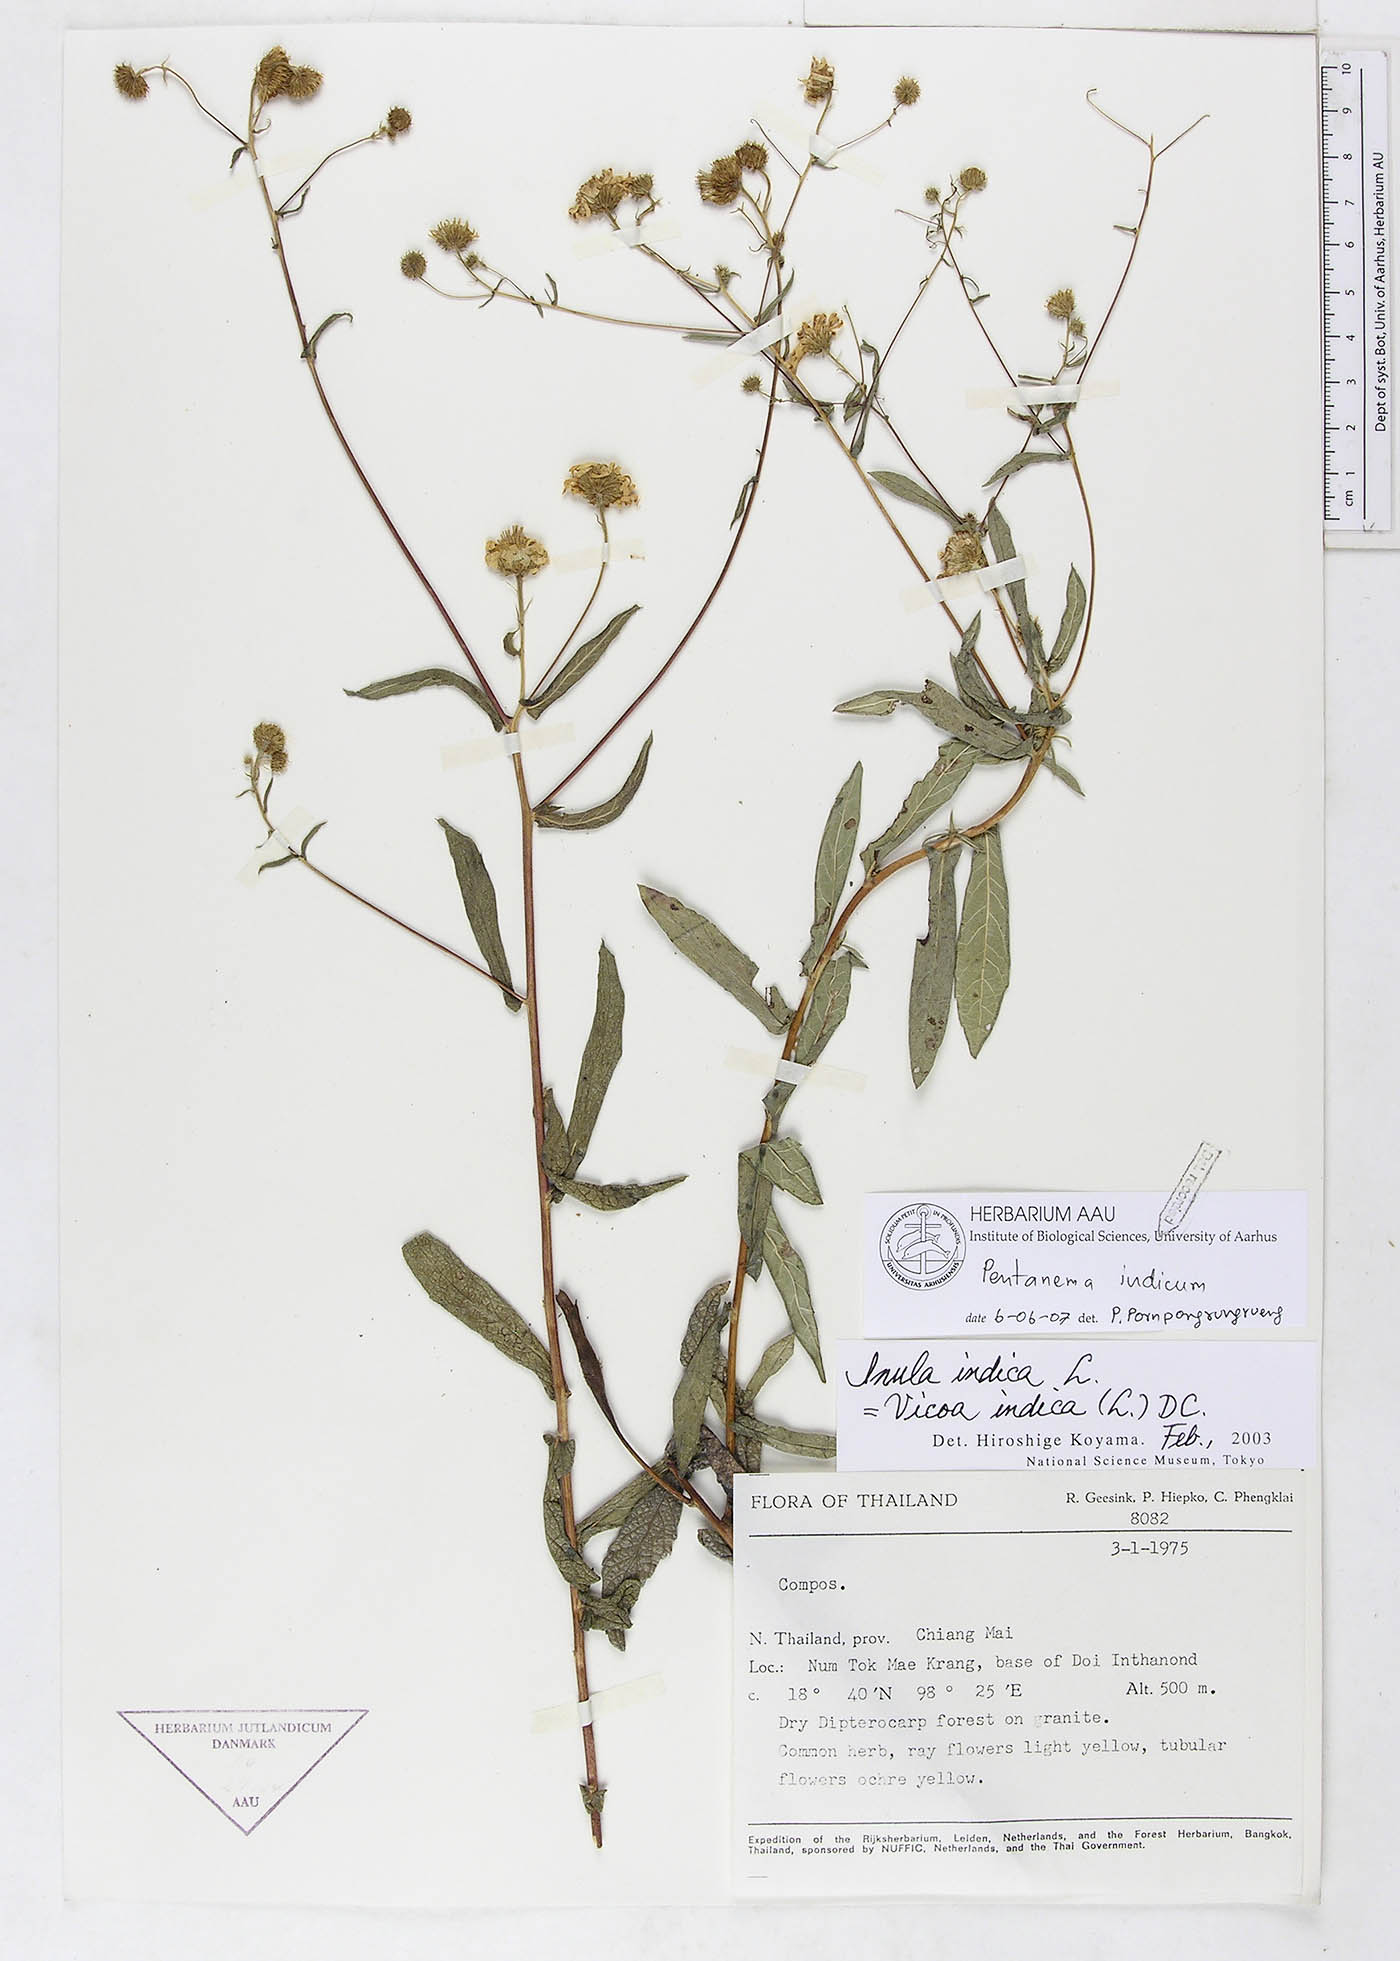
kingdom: Plantae
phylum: Tracheophyta
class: Magnoliopsida
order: Asterales
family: Asteraceae
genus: Vicoa
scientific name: Vicoa indica
